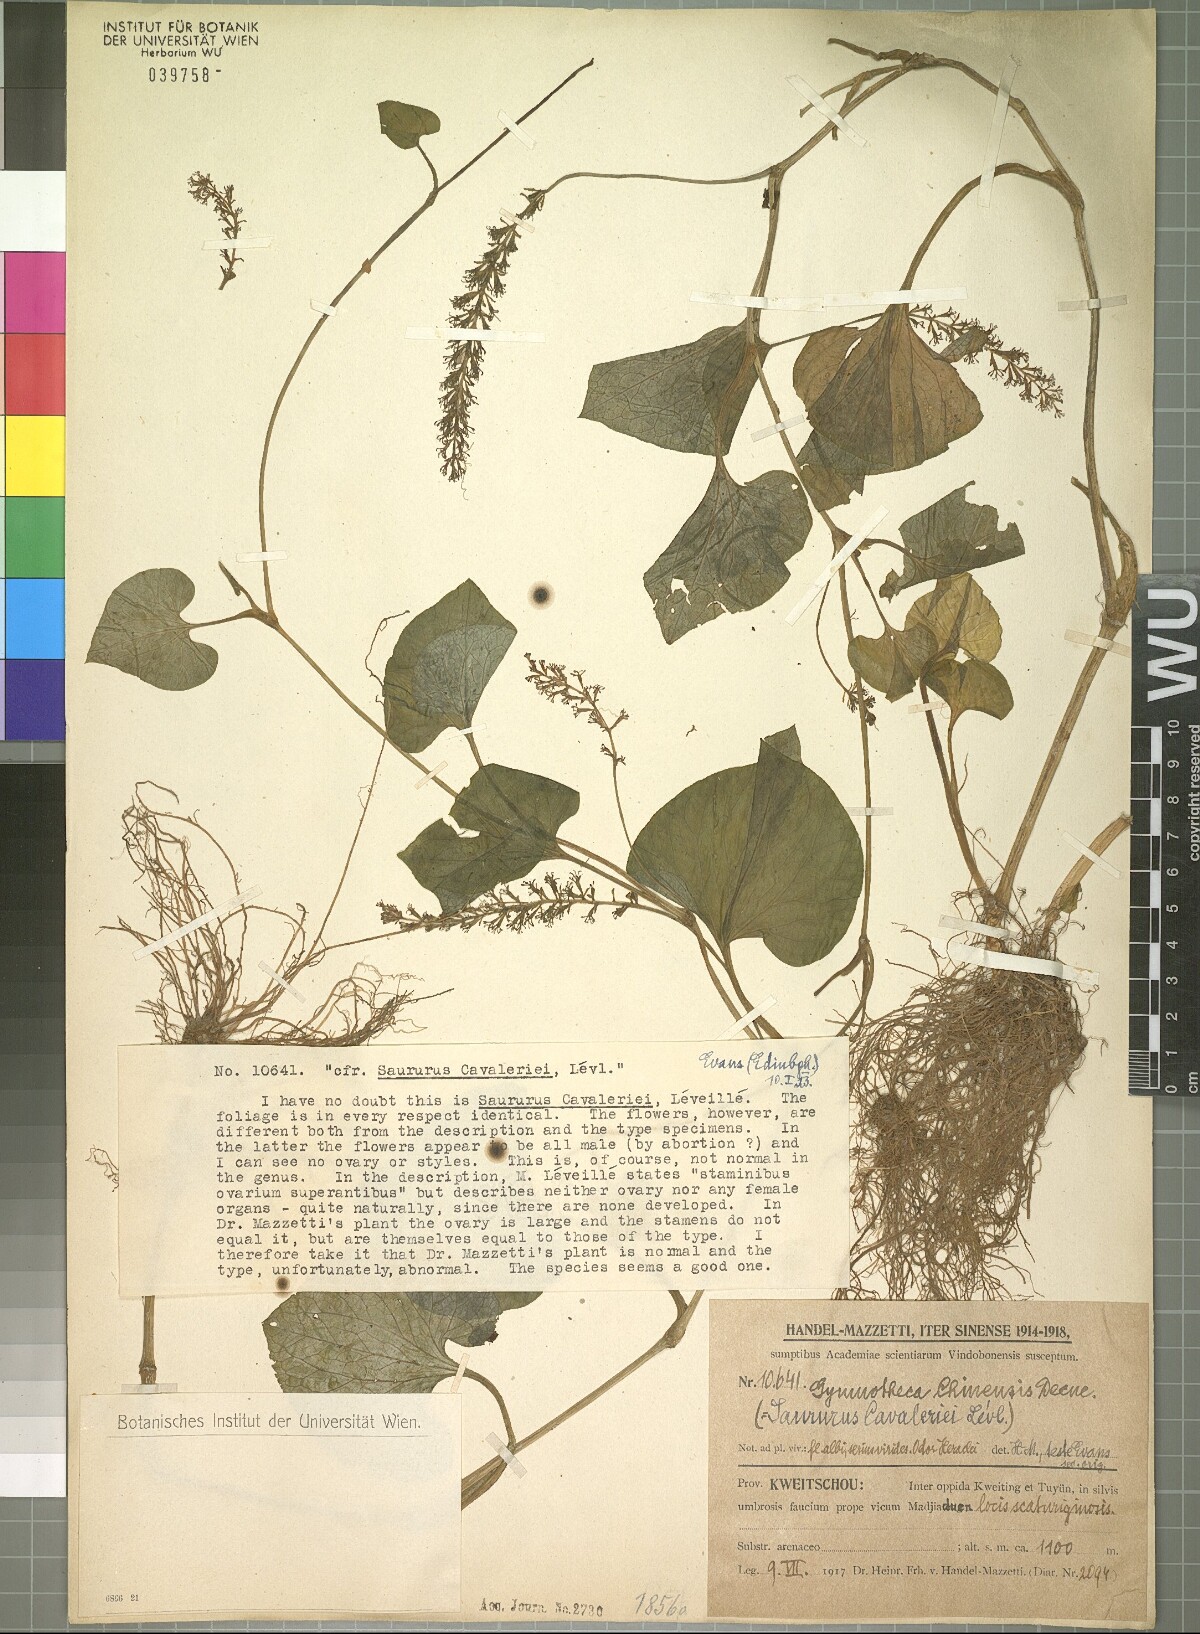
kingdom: Plantae
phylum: Tracheophyta
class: Magnoliopsida
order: Piperales
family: Saururaceae
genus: Gymnotheca
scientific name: Gymnotheca chinensis
